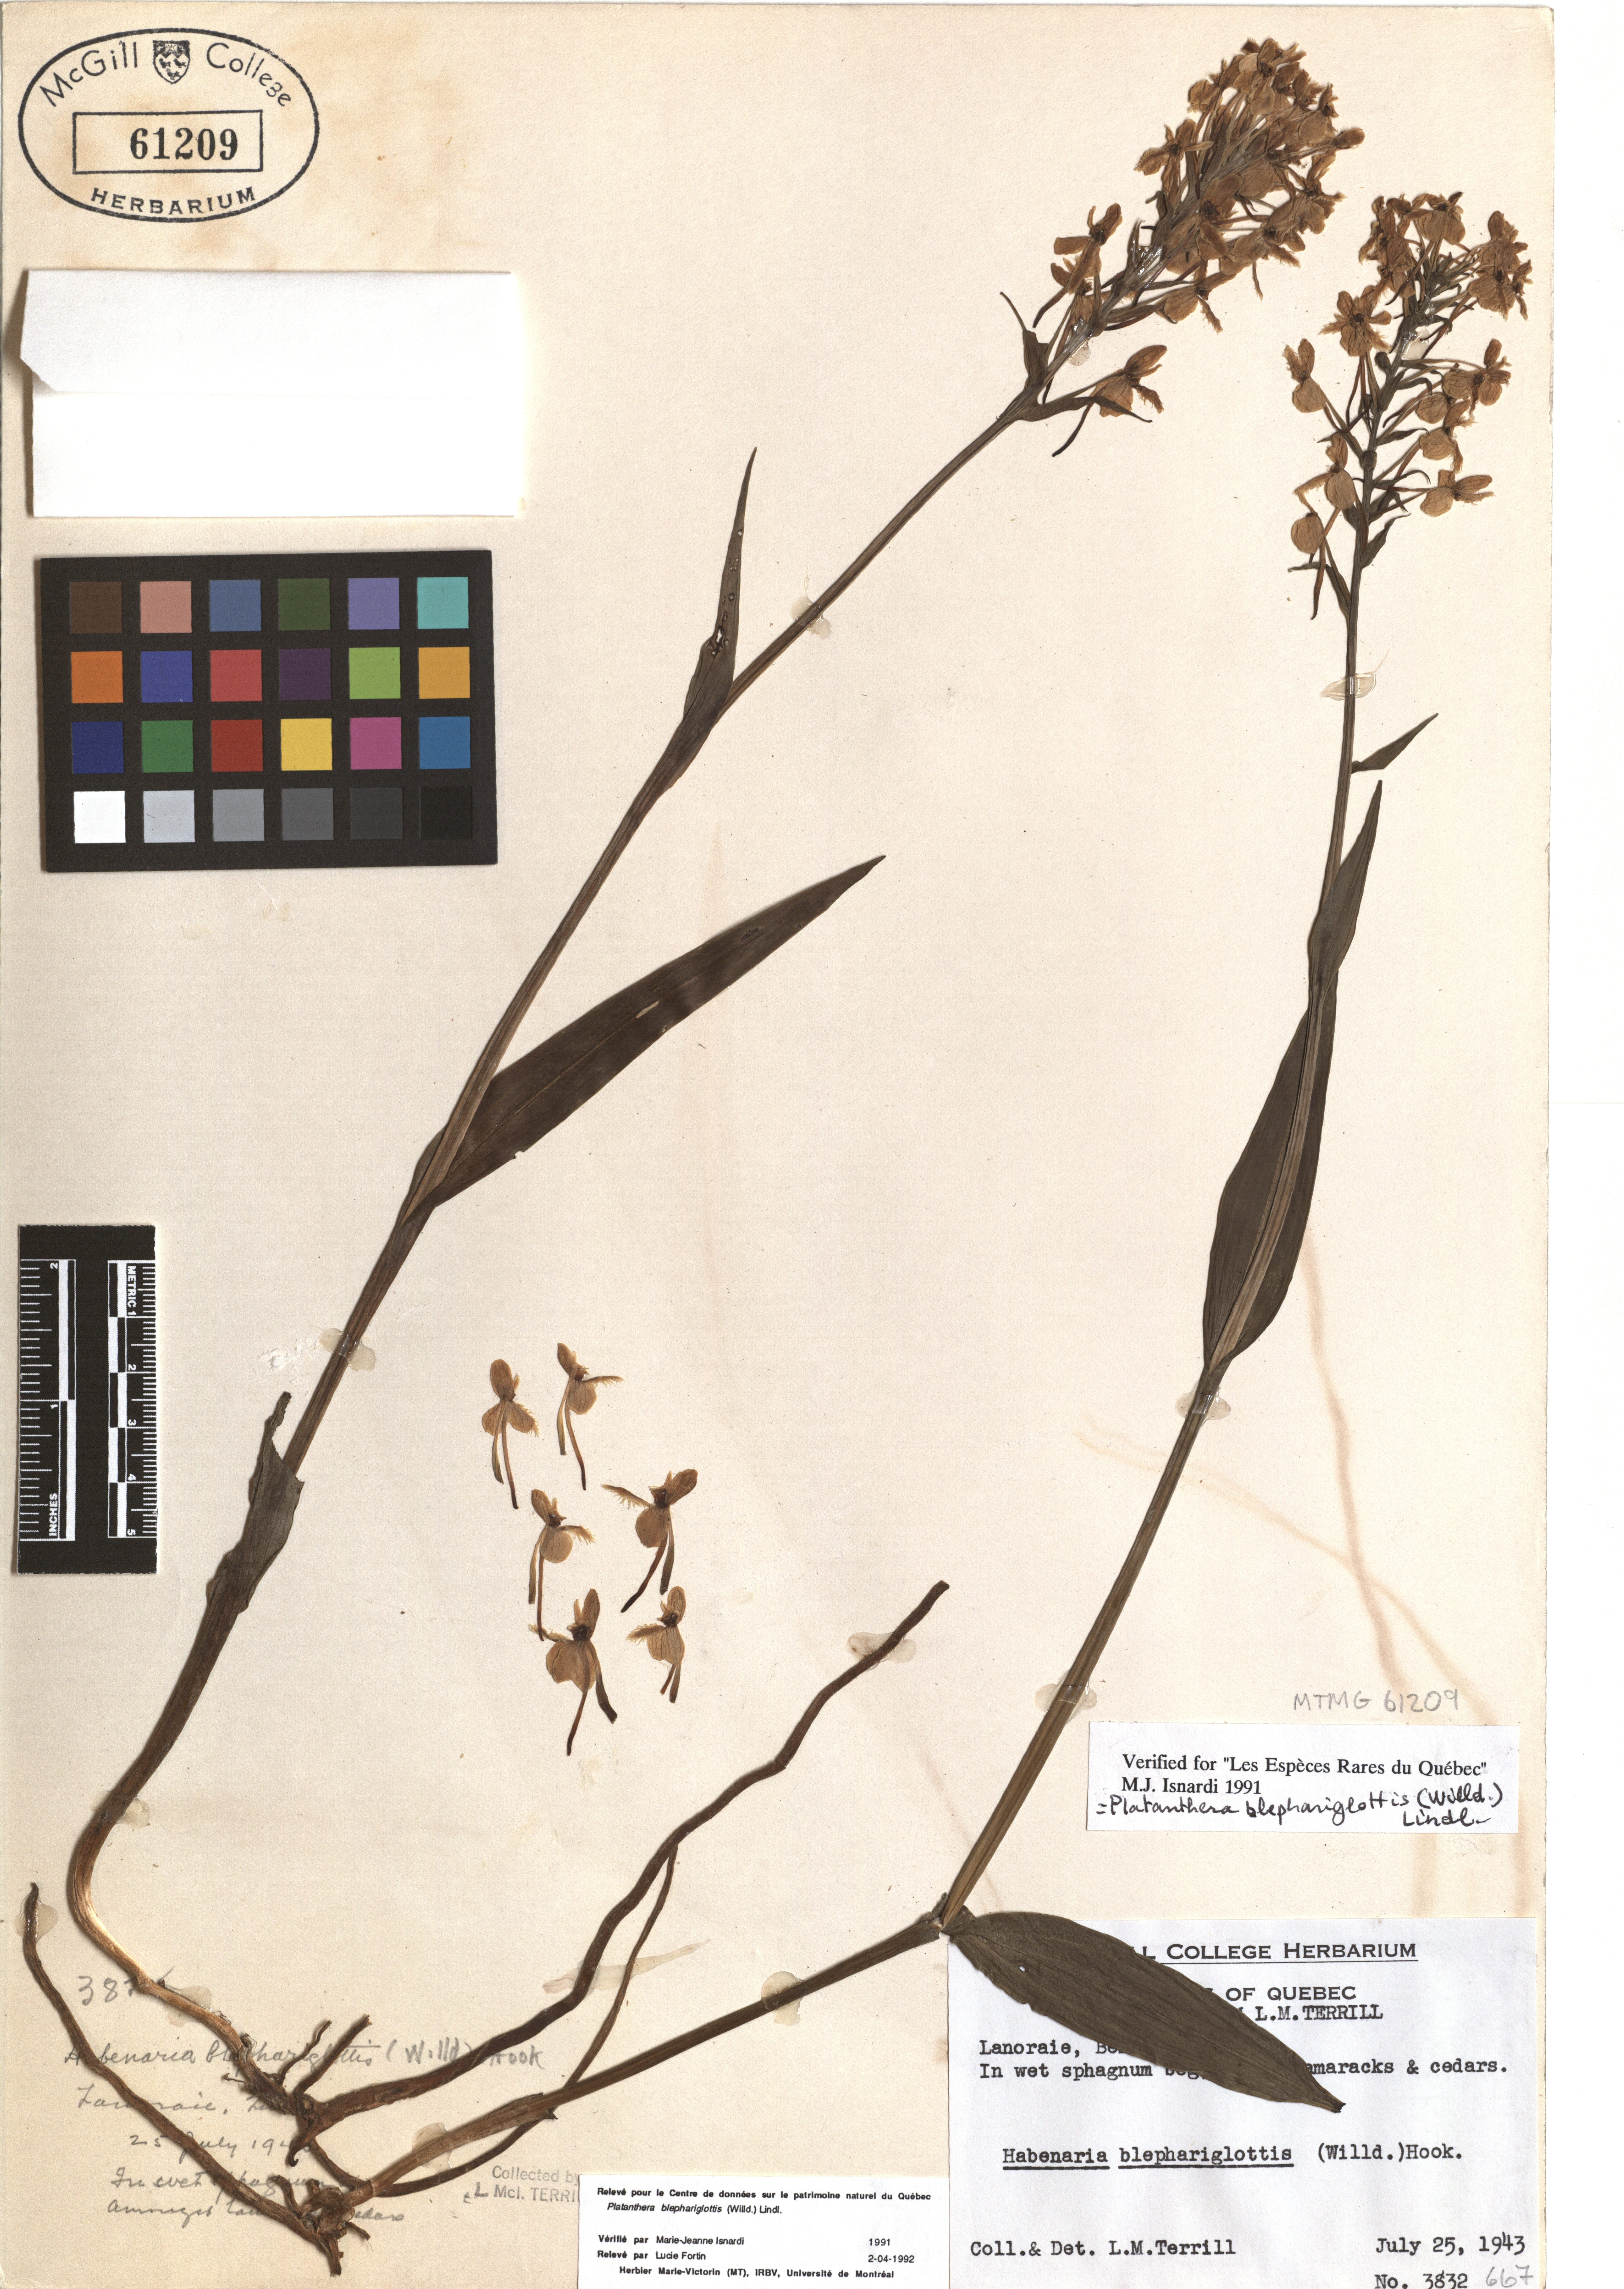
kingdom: Plantae
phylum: Tracheophyta
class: Liliopsida
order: Asparagales
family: Orchidaceae
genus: Platanthera
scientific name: Platanthera blephariglottis
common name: White fringed orchid
